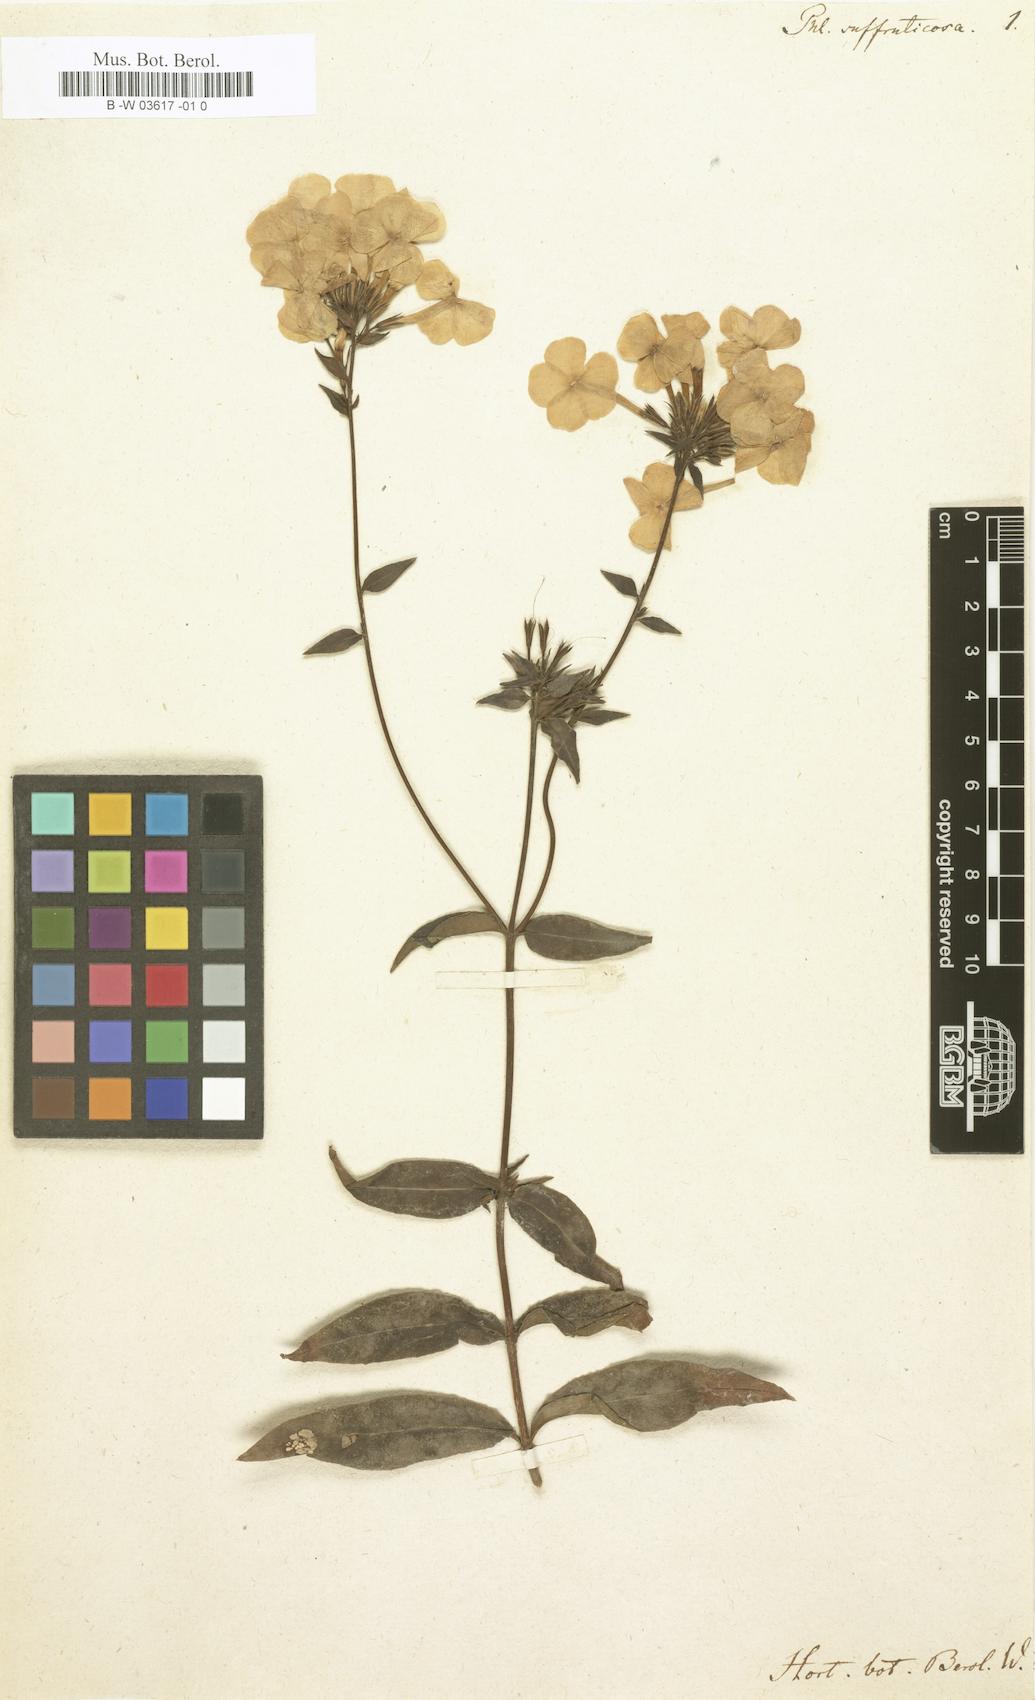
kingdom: Plantae
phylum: Tracheophyta
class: Magnoliopsida
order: Ericales
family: Polemoniaceae
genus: Phlox
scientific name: Phlox
